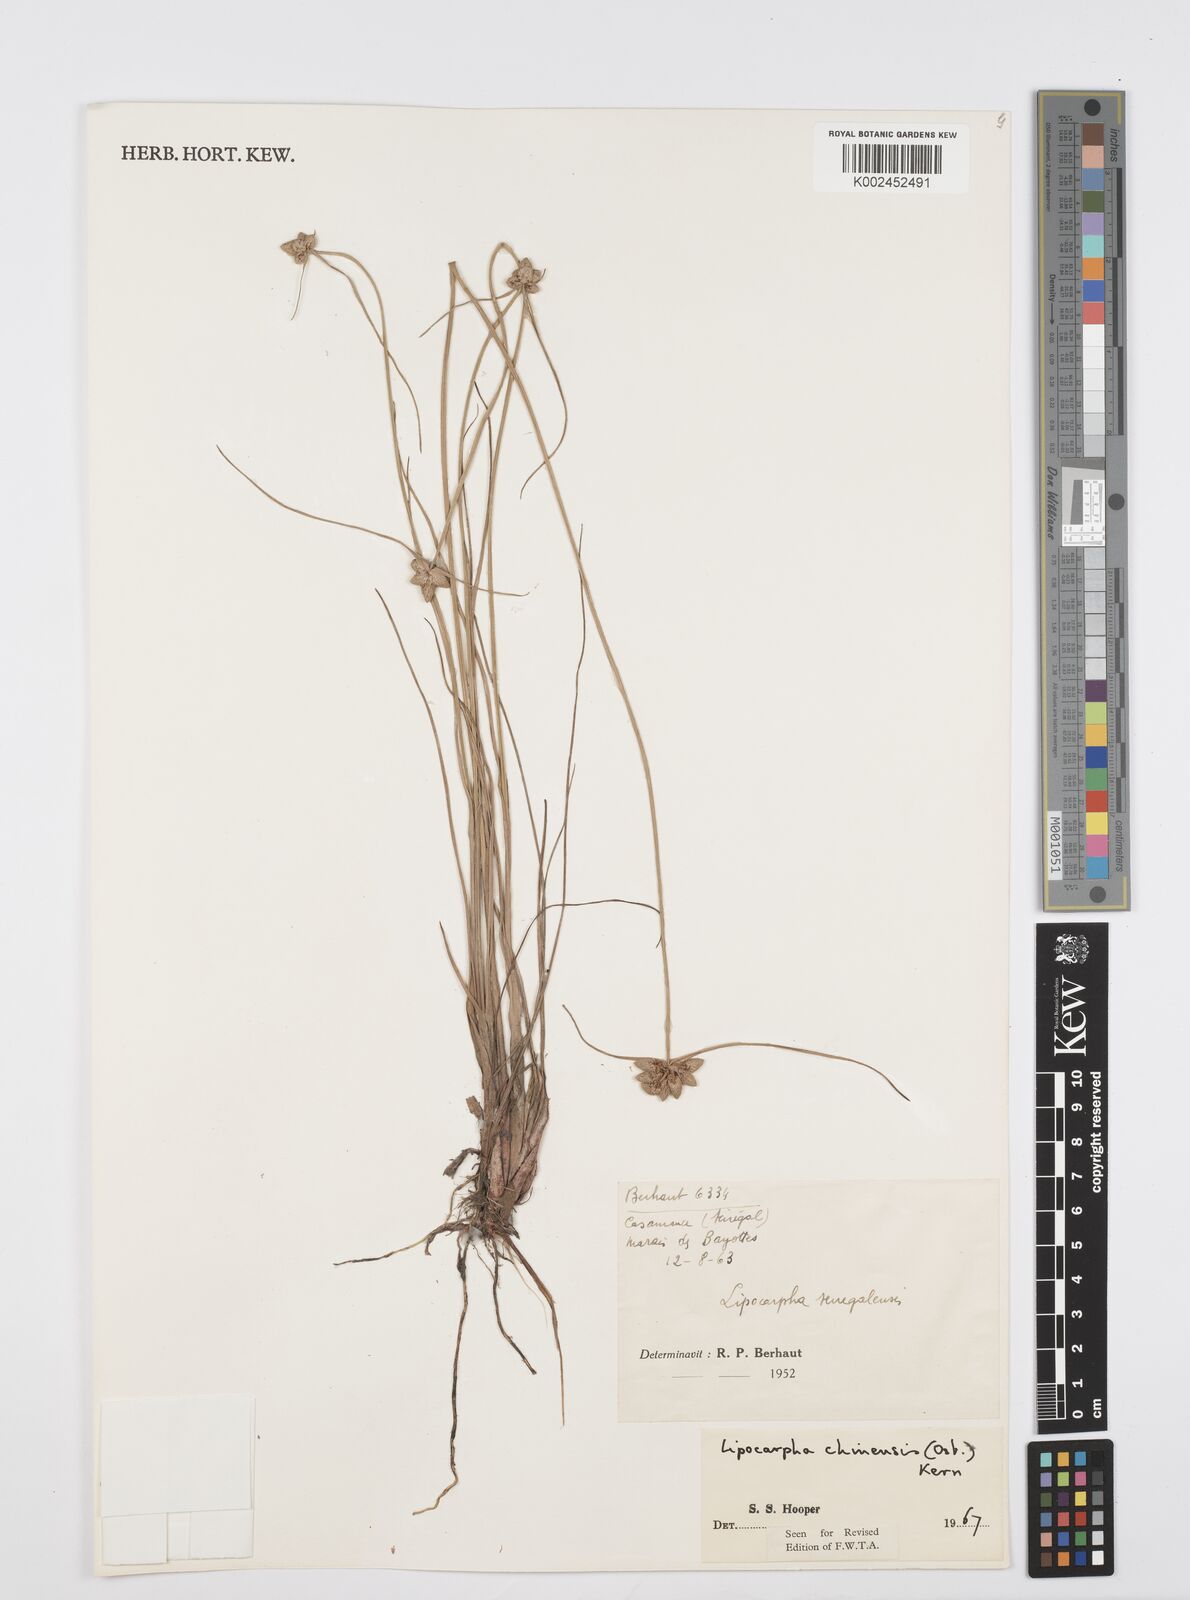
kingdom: Plantae
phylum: Tracheophyta
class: Liliopsida
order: Poales
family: Cyperaceae
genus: Cyperus
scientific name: Cyperus albescens
